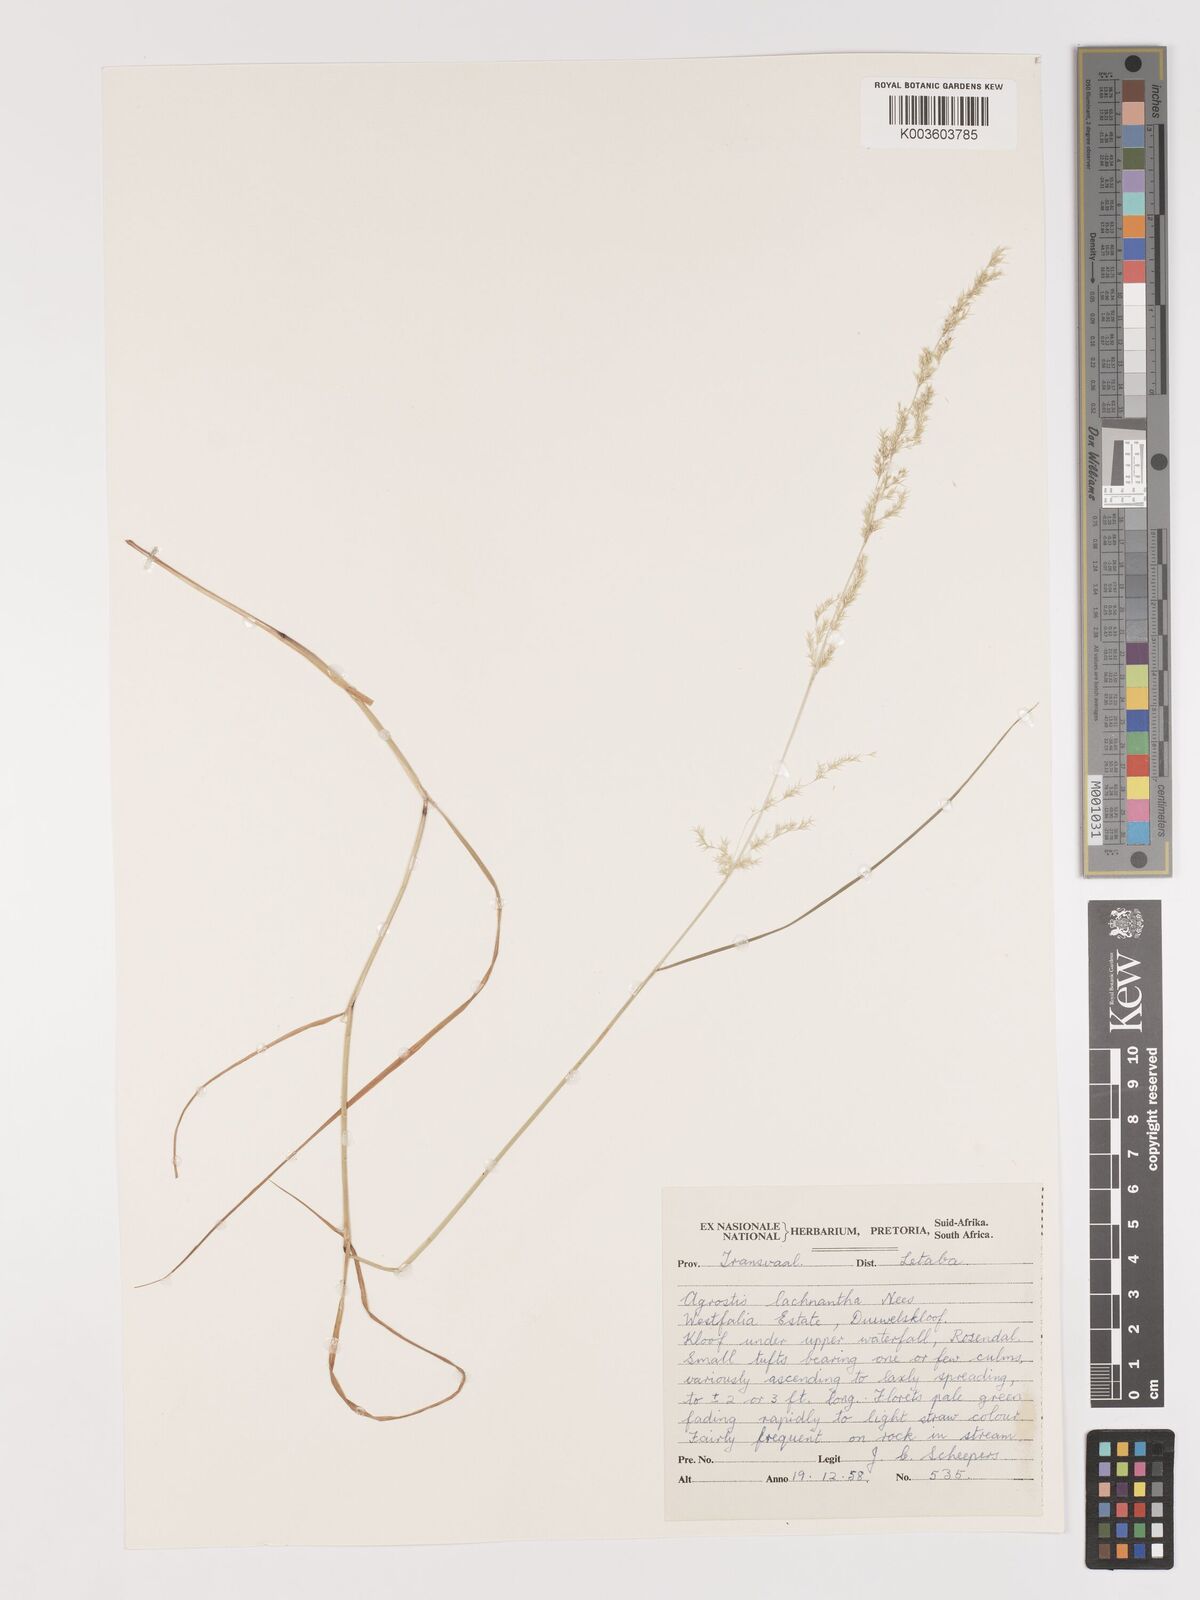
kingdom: Plantae
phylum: Tracheophyta
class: Liliopsida
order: Poales
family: Poaceae
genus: Lachnagrostis
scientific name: Lachnagrostis lachnantha
